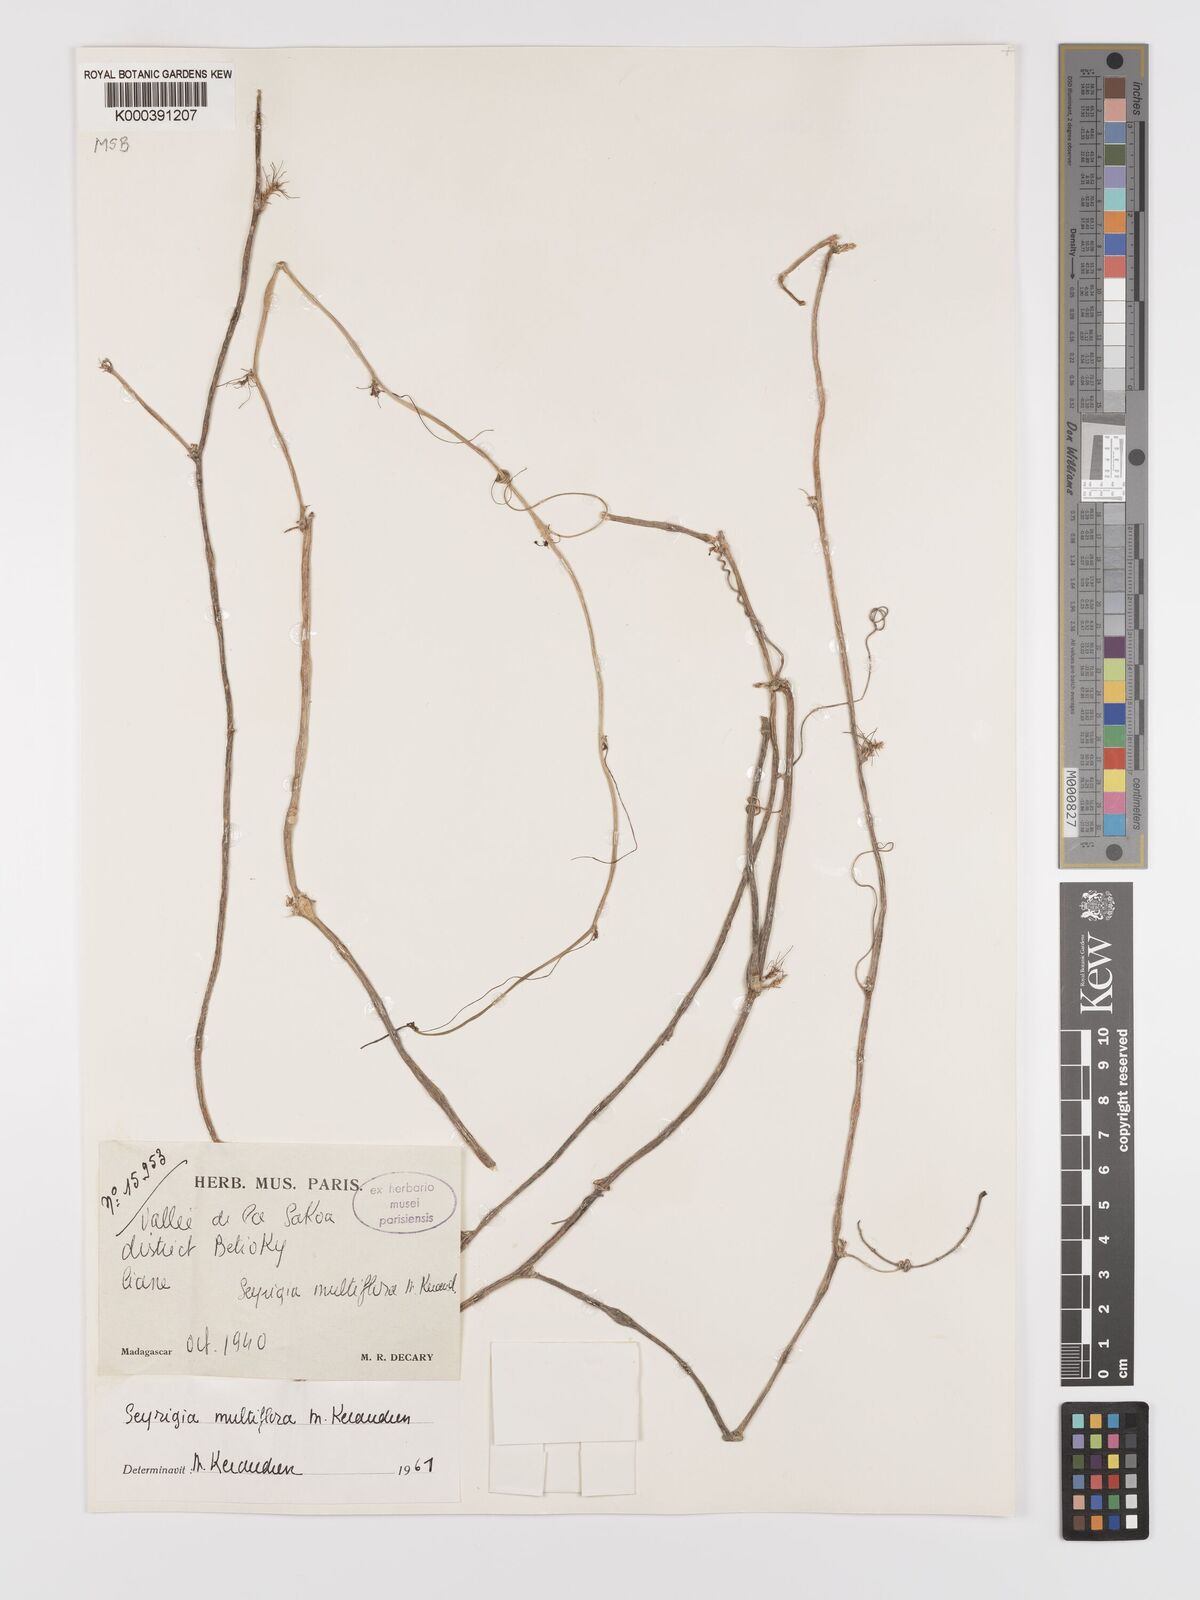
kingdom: Plantae
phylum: Tracheophyta
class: Magnoliopsida
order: Cucurbitales
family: Cucurbitaceae
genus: Seyrigia
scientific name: Seyrigia humbertii
